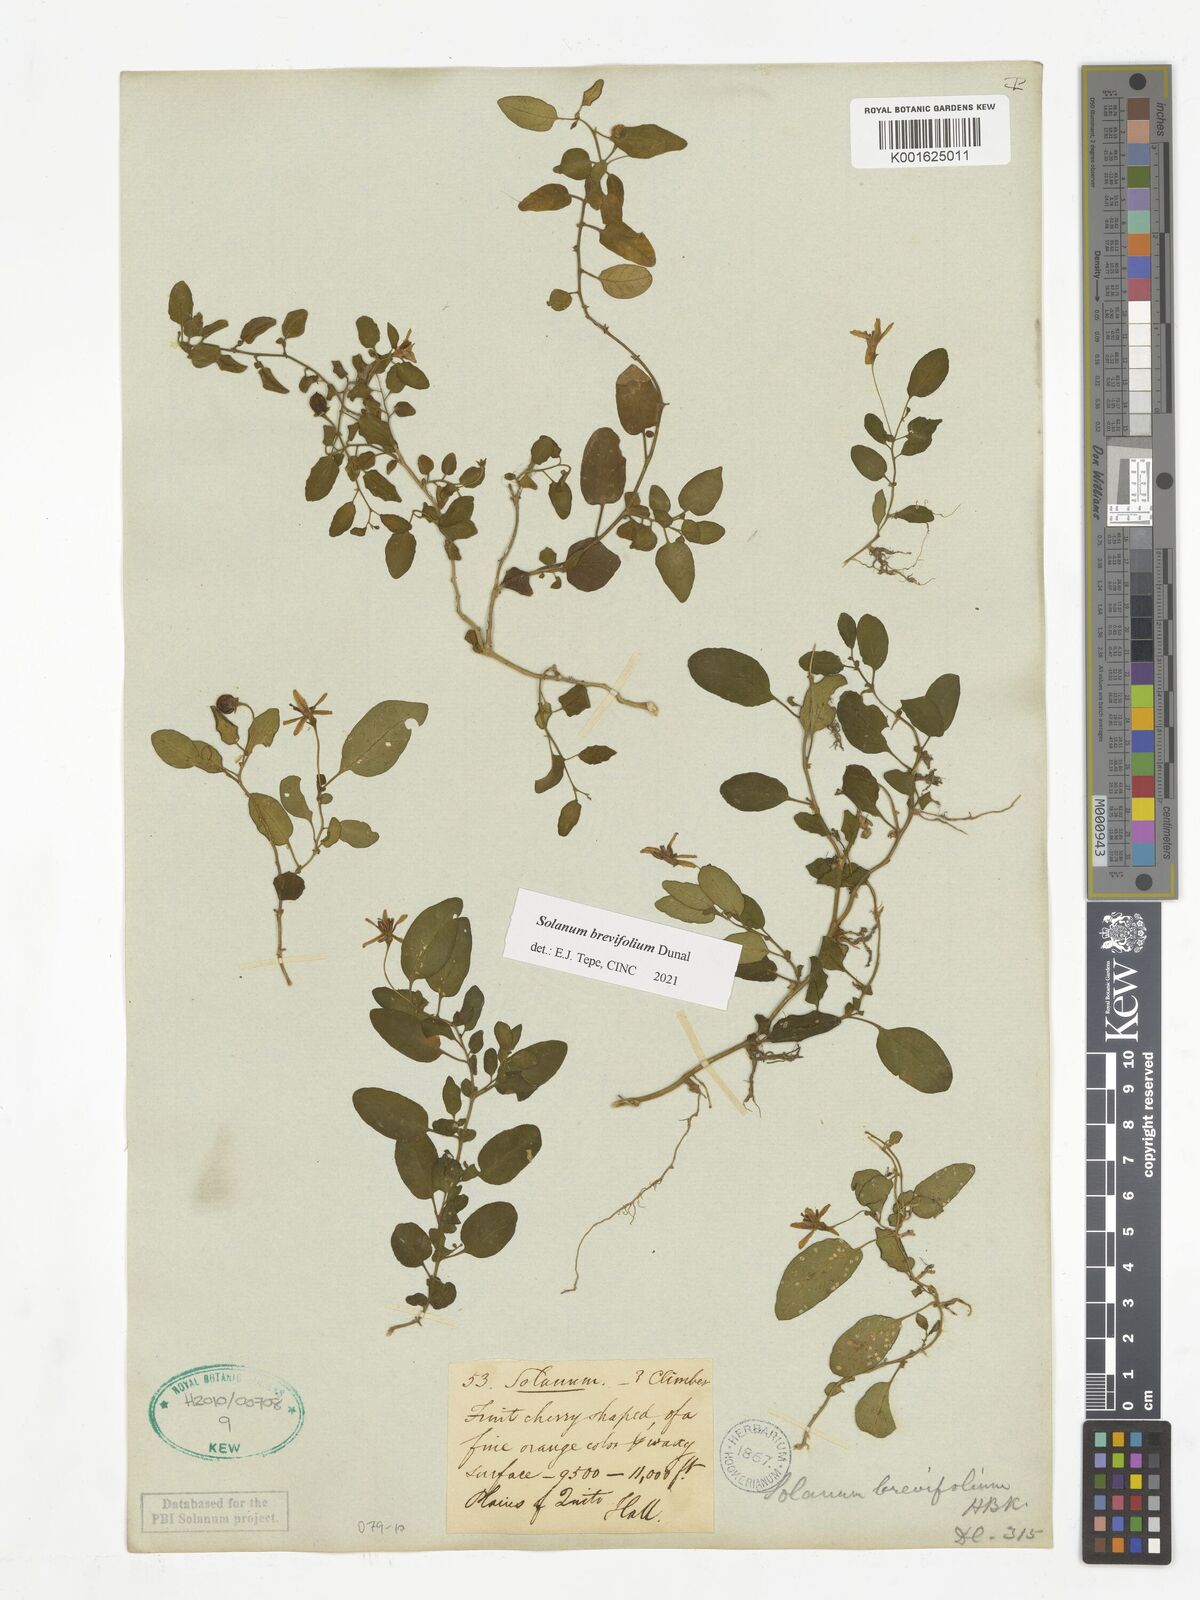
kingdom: Plantae
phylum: Tracheophyta
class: Magnoliopsida
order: Solanales
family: Solanaceae
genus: Solanum
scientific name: Solanum brevifolium
